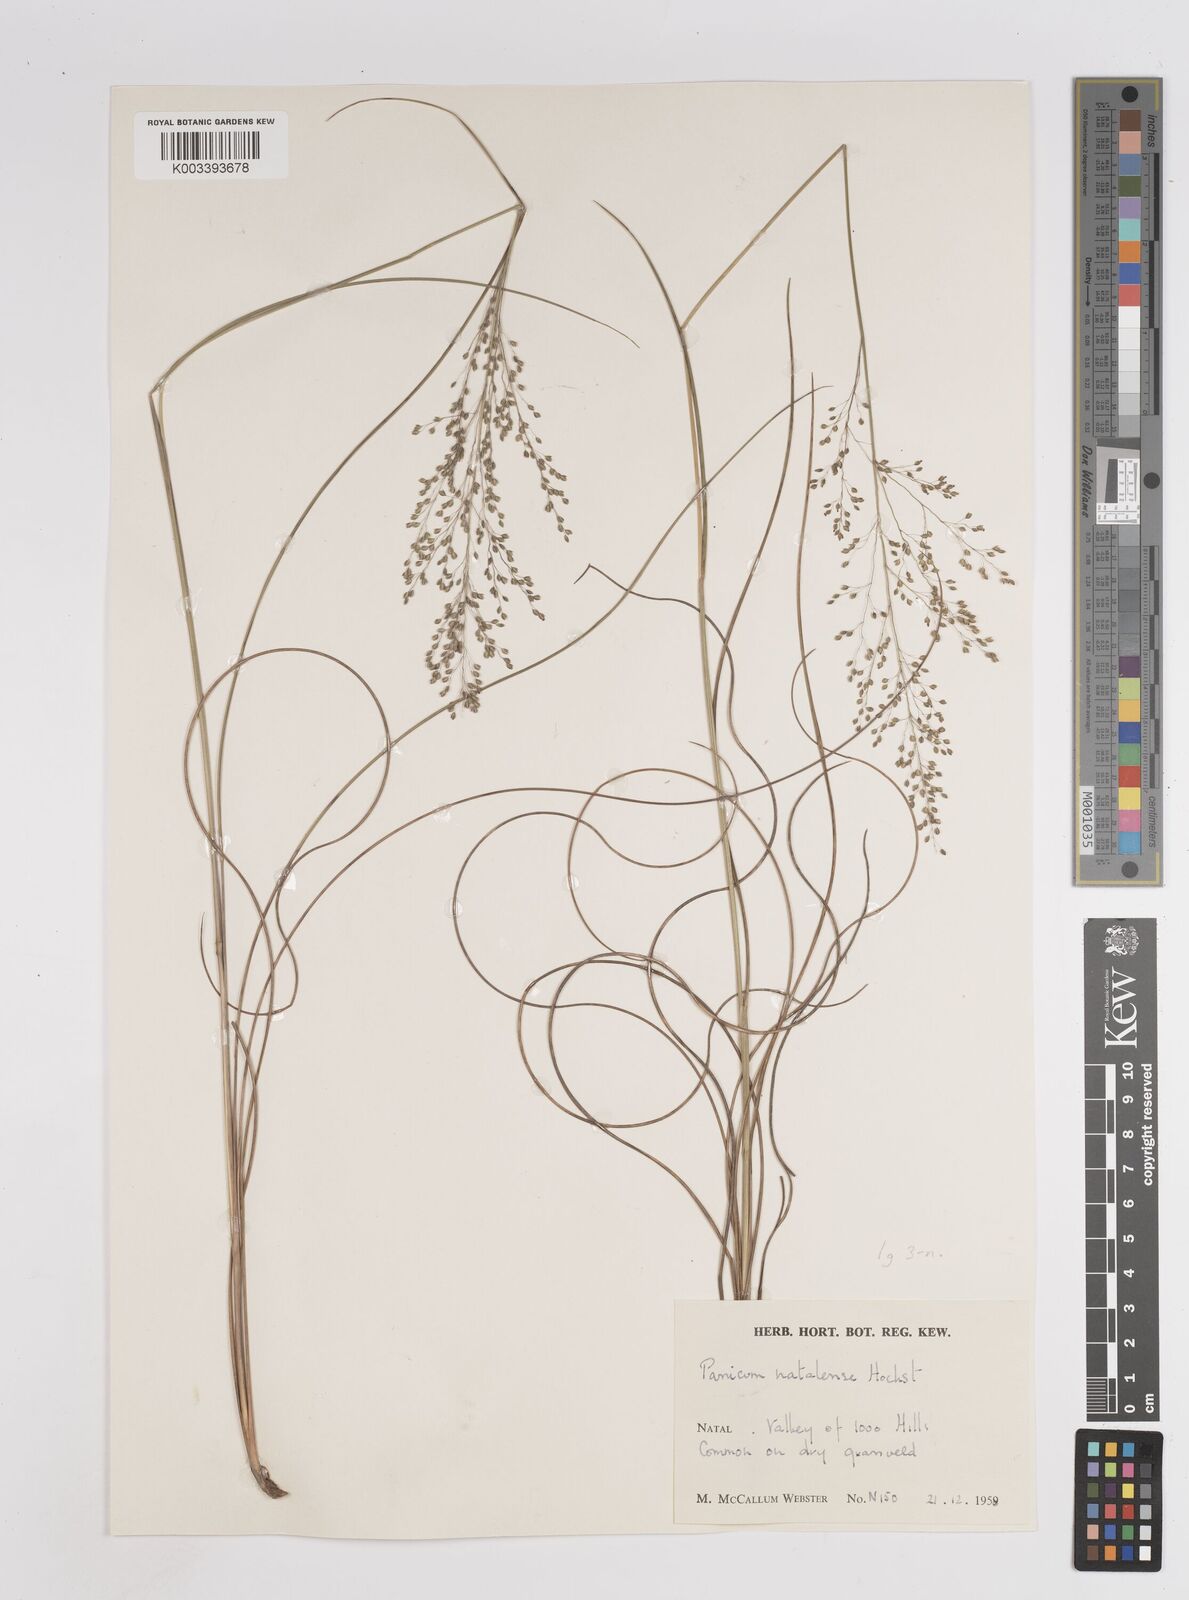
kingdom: Plantae
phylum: Tracheophyta
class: Liliopsida
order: Poales
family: Poaceae
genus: Trichanthecium
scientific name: Trichanthecium natalense
